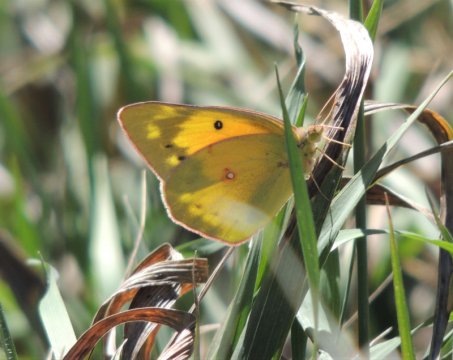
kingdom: Animalia
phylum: Arthropoda
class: Insecta
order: Lepidoptera
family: Pieridae
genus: Colias
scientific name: Colias eurytheme
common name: Orange Sulphur
